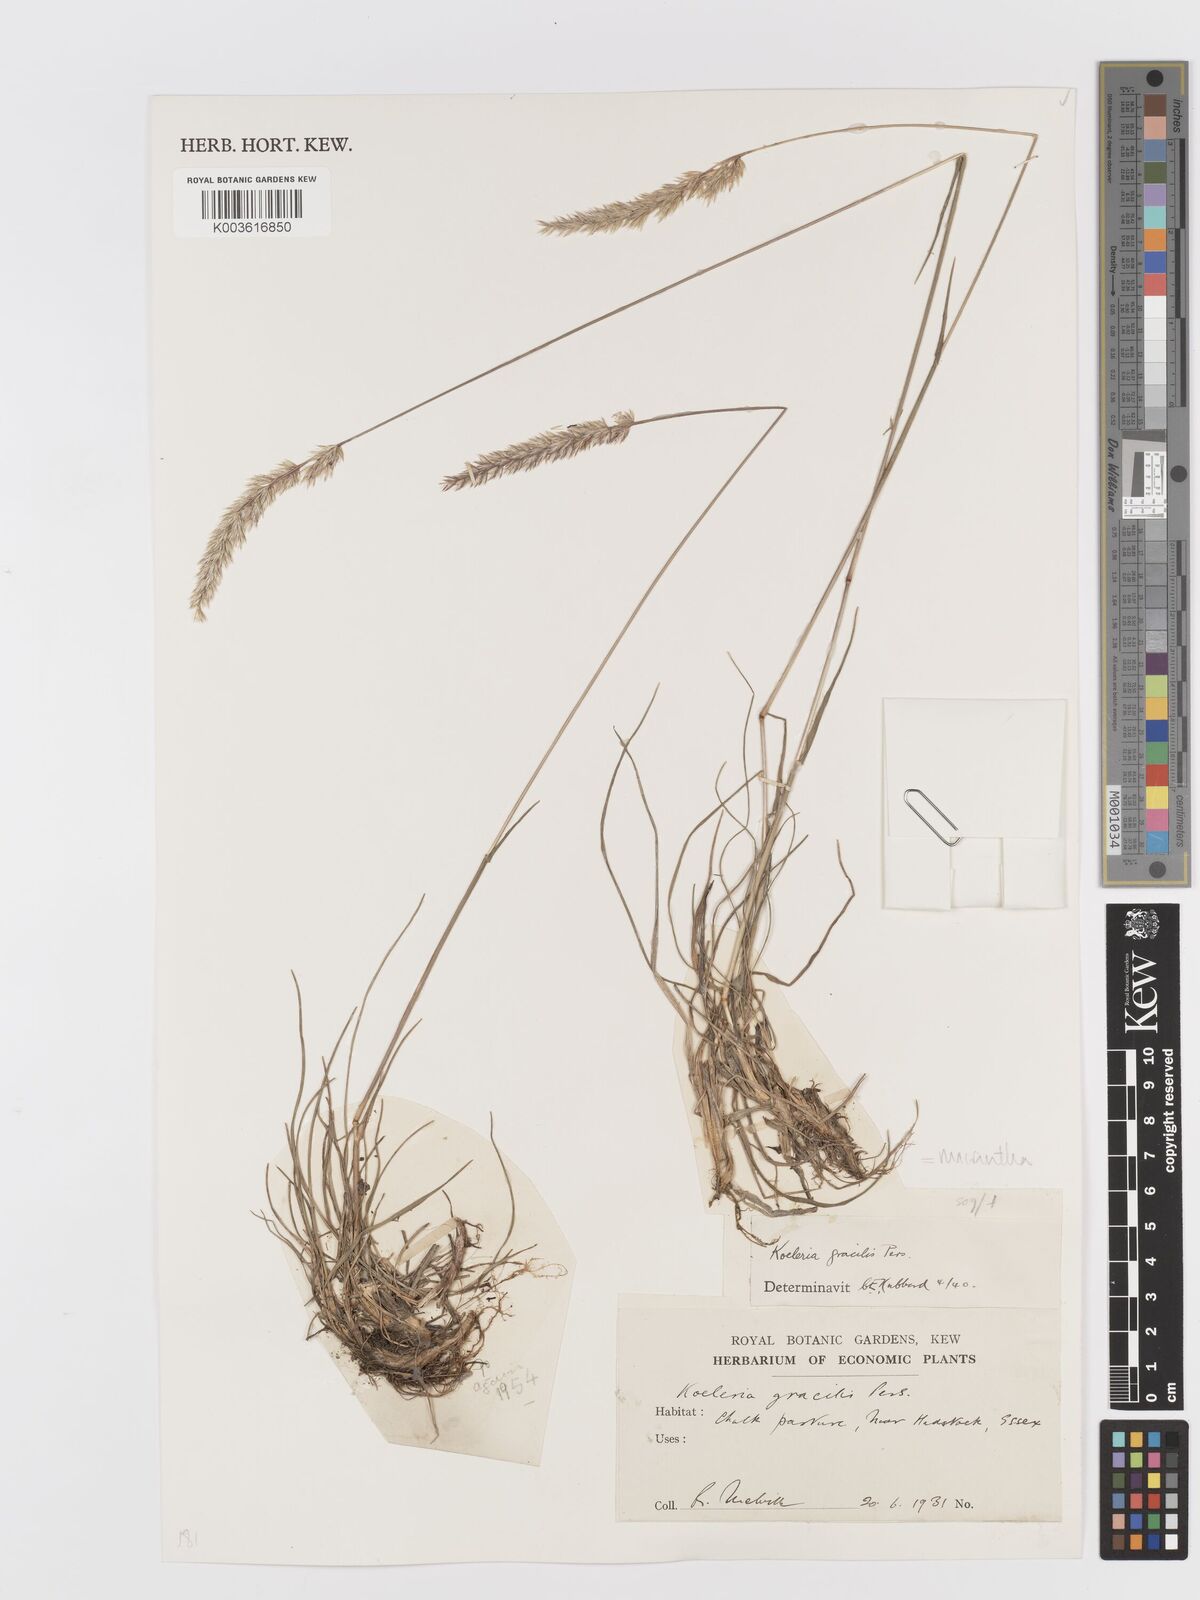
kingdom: Plantae
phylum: Tracheophyta
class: Liliopsida
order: Poales
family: Poaceae
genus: Koeleria
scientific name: Koeleria macrantha
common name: Crested hair-grass
